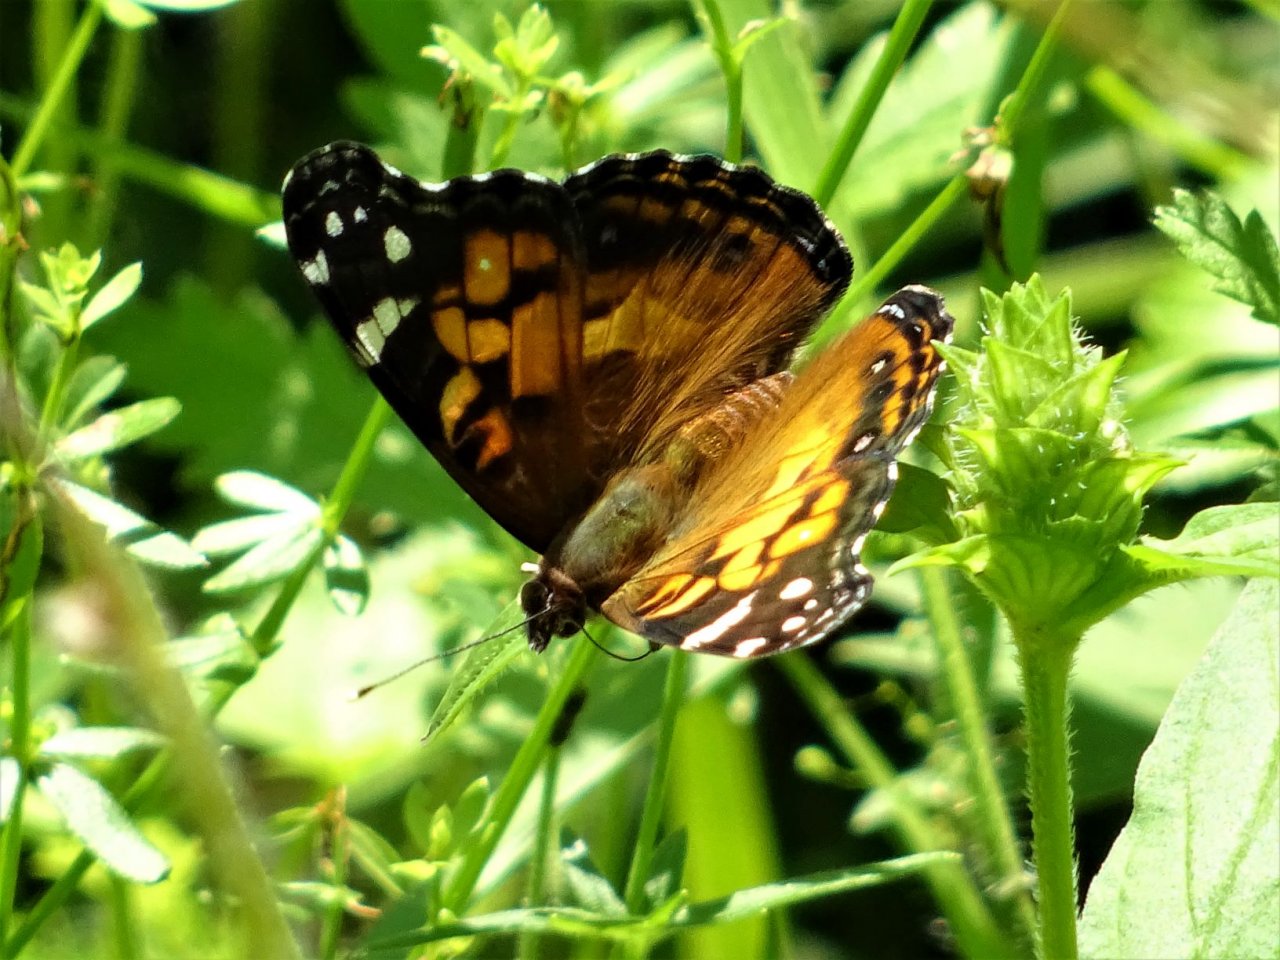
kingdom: Animalia
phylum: Arthropoda
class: Insecta
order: Lepidoptera
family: Nymphalidae
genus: Vanessa
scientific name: Vanessa virginiensis
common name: American Lady
